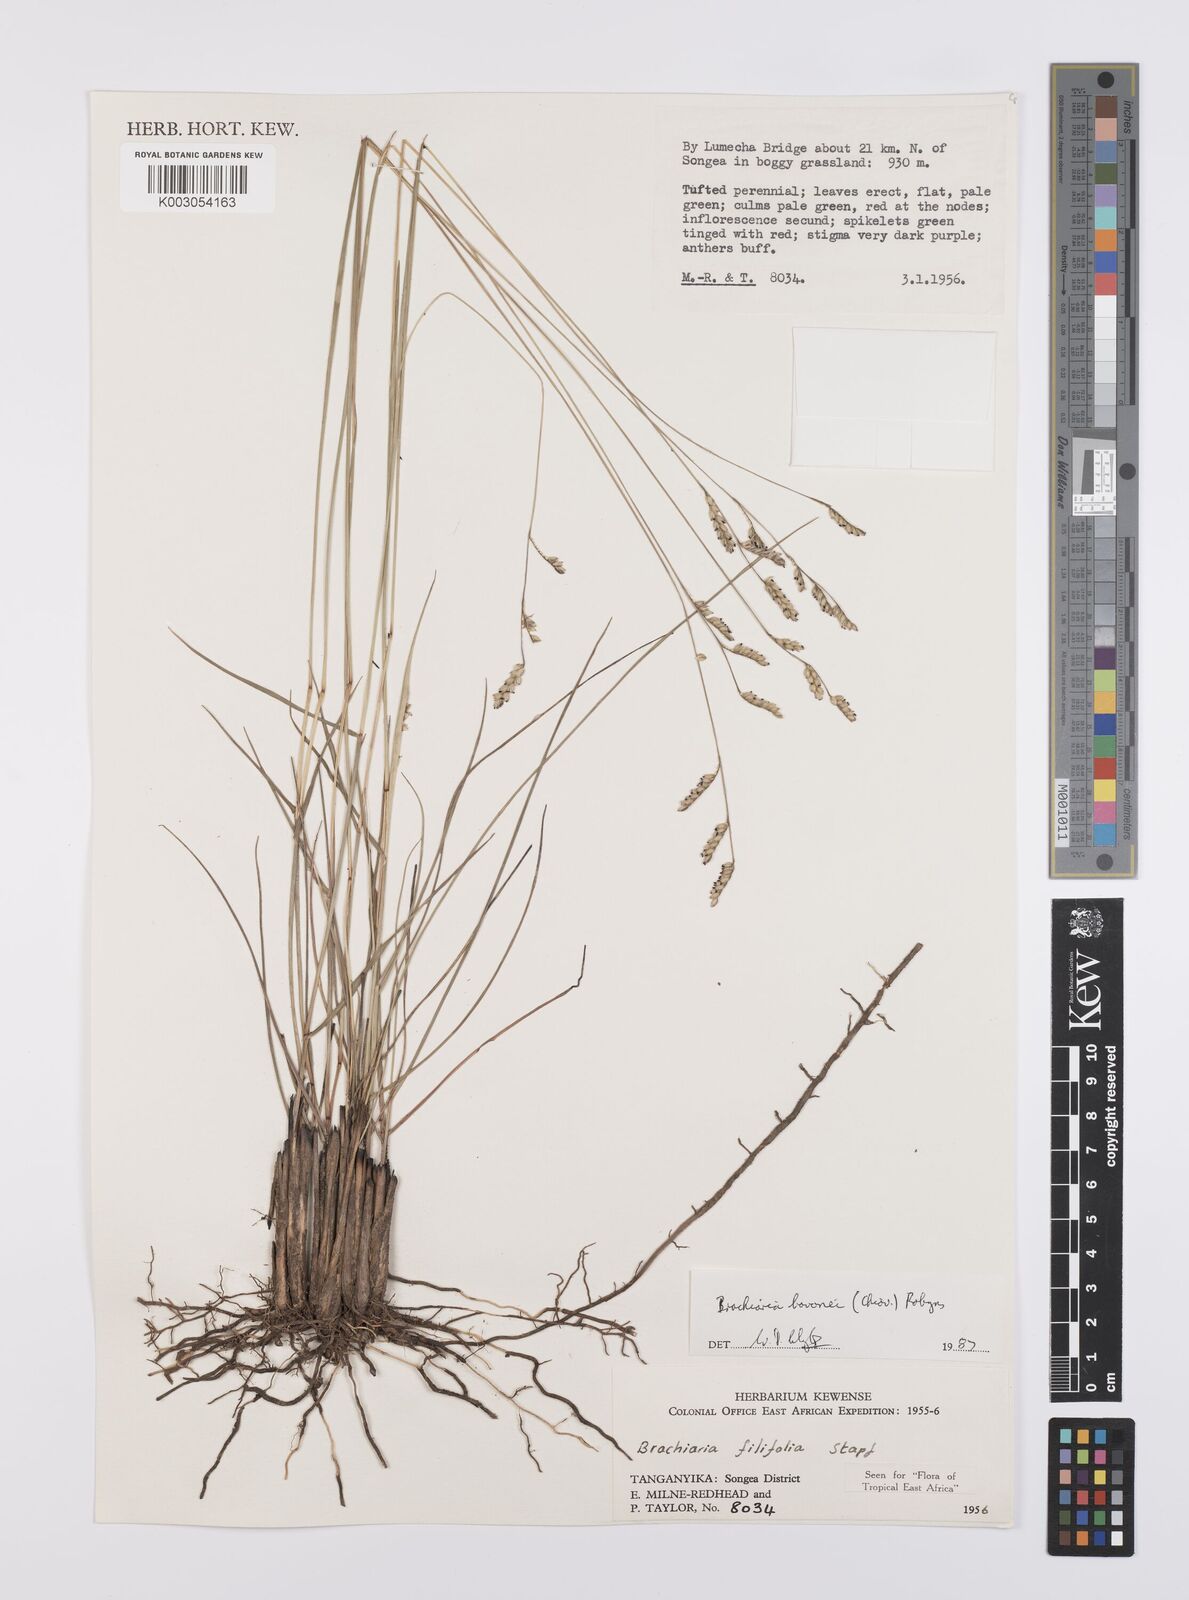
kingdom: Plantae
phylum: Tracheophyta
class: Liliopsida
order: Poales
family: Poaceae
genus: Urochloa
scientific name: Urochloa bovonei
